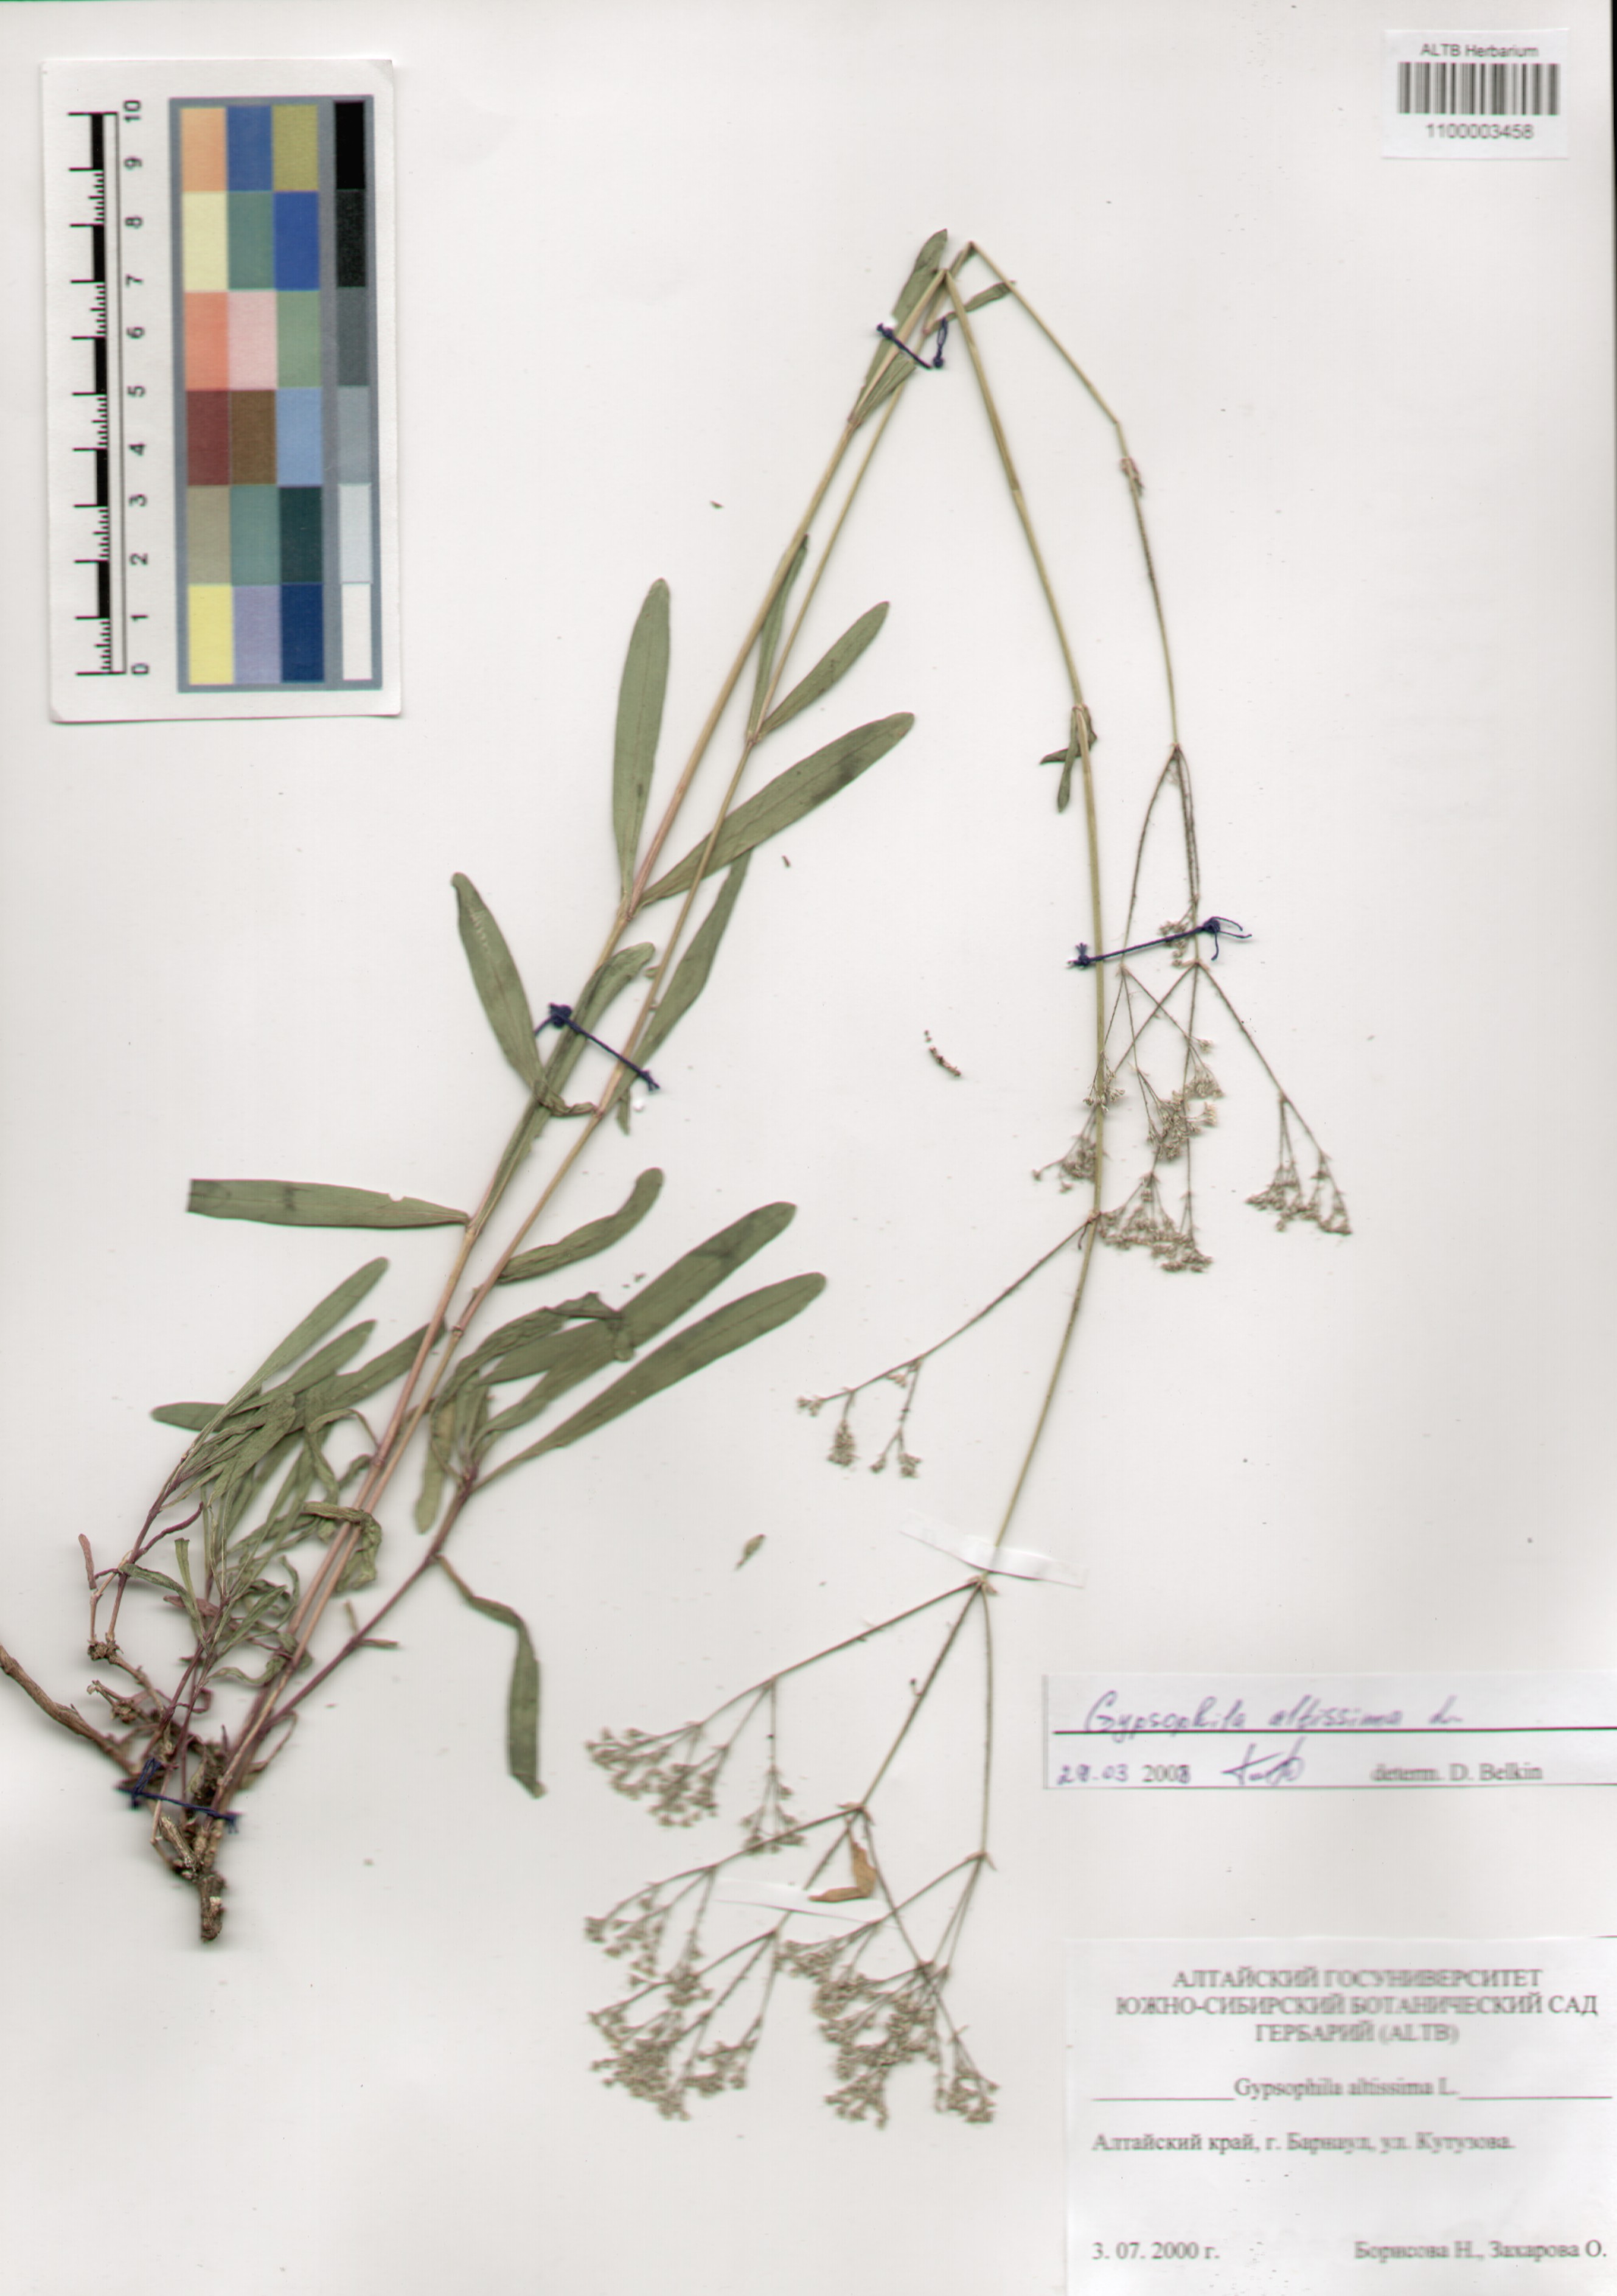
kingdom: Plantae
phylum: Tracheophyta
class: Magnoliopsida
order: Caryophyllales
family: Caryophyllaceae
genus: Gypsophila
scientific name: Gypsophila altissima
